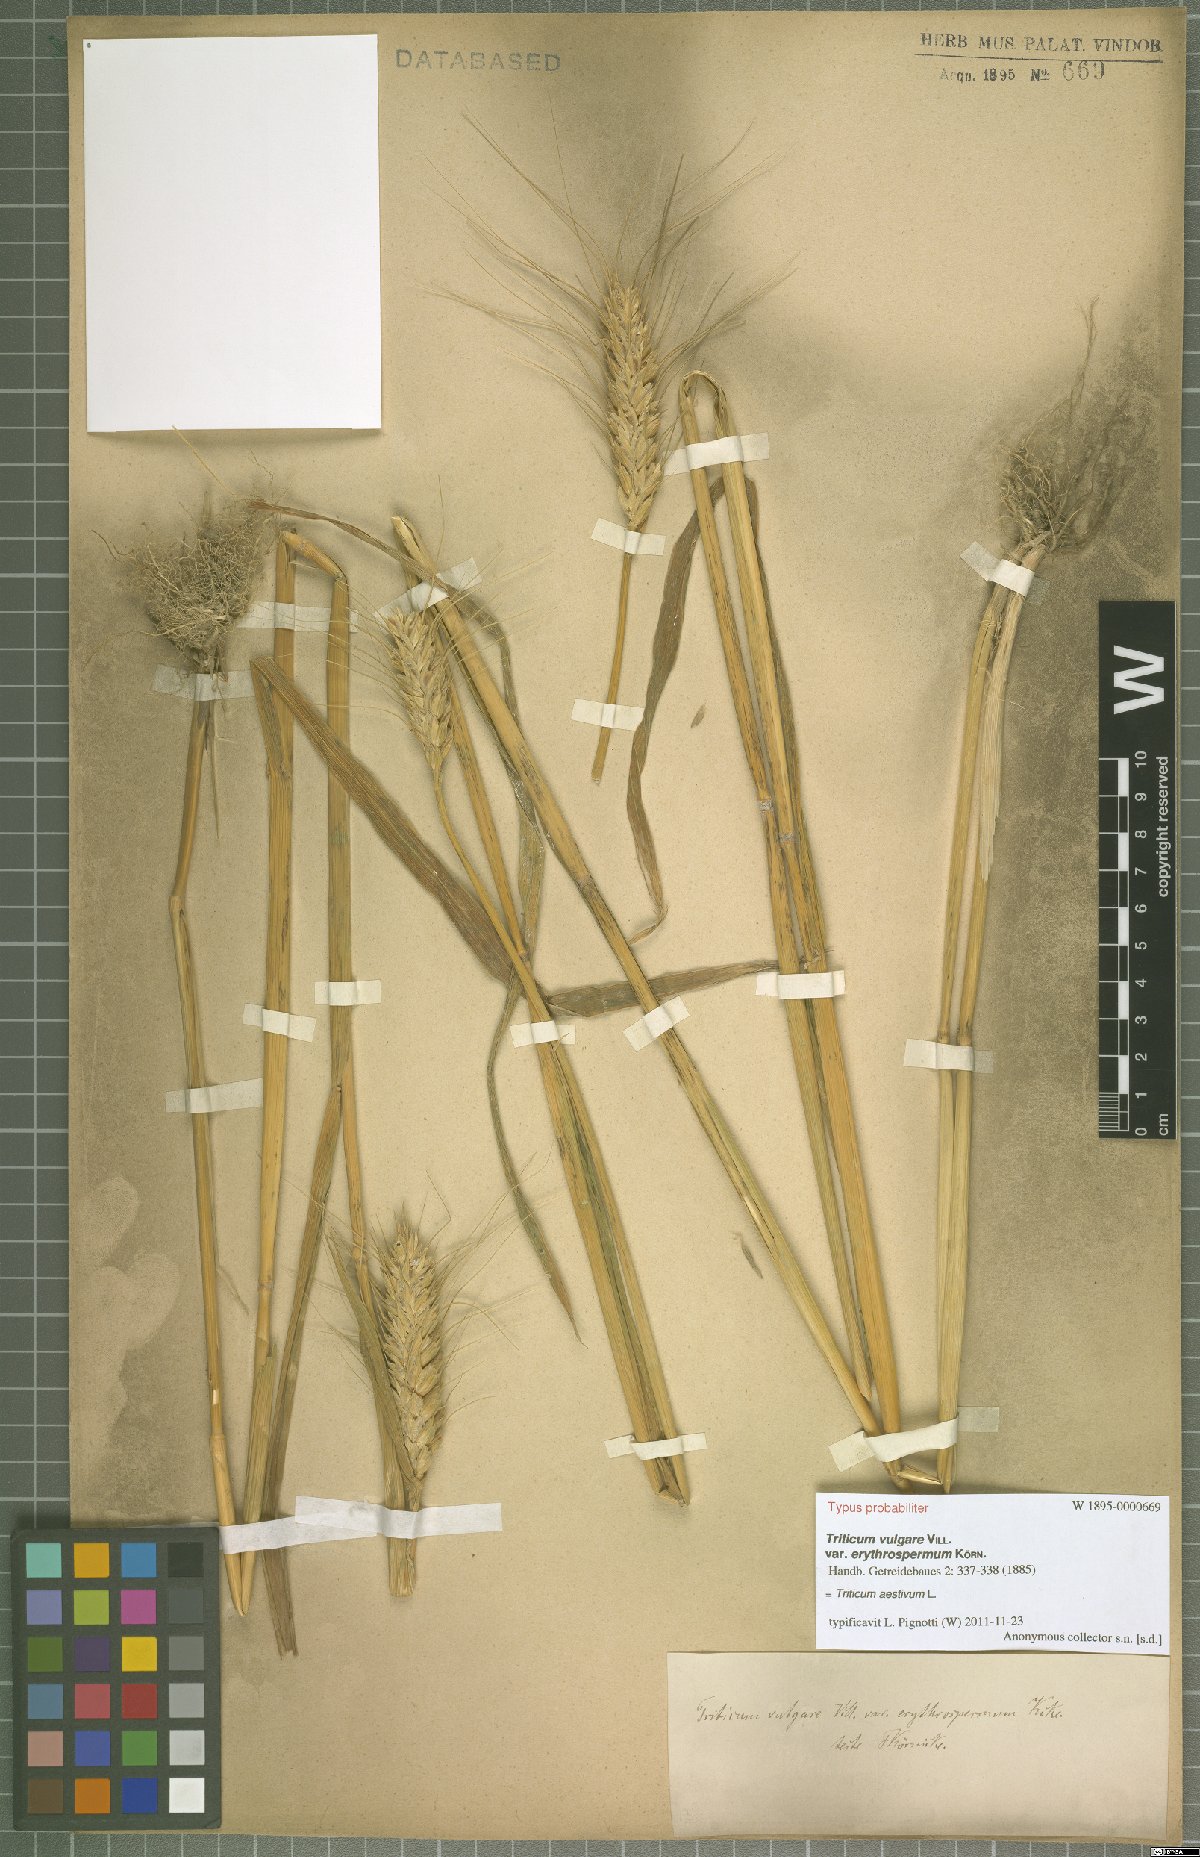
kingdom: Plantae
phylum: Tracheophyta
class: Liliopsida
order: Poales
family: Poaceae
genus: Triticum
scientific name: Triticum aestivum
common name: Common wheat
